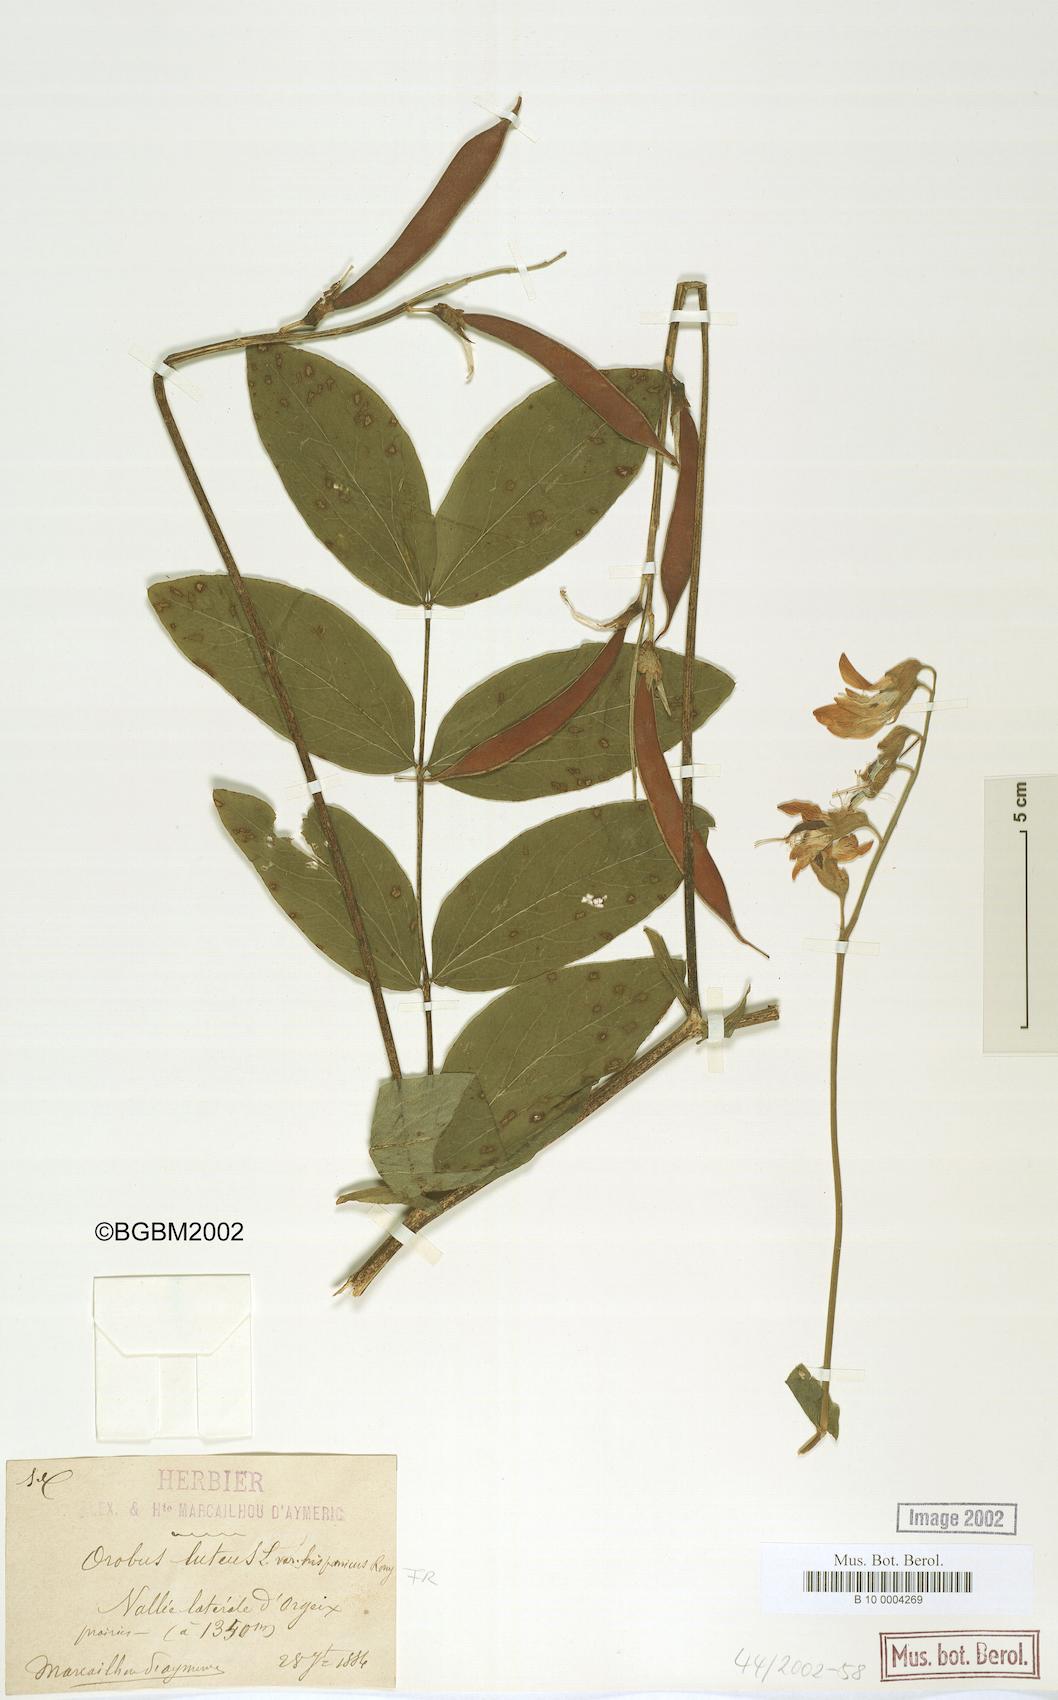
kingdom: Plantae
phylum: Tracheophyta
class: Magnoliopsida
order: Fabales
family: Fabaceae
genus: Lathyrus
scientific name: Lathyrus gmelinii
